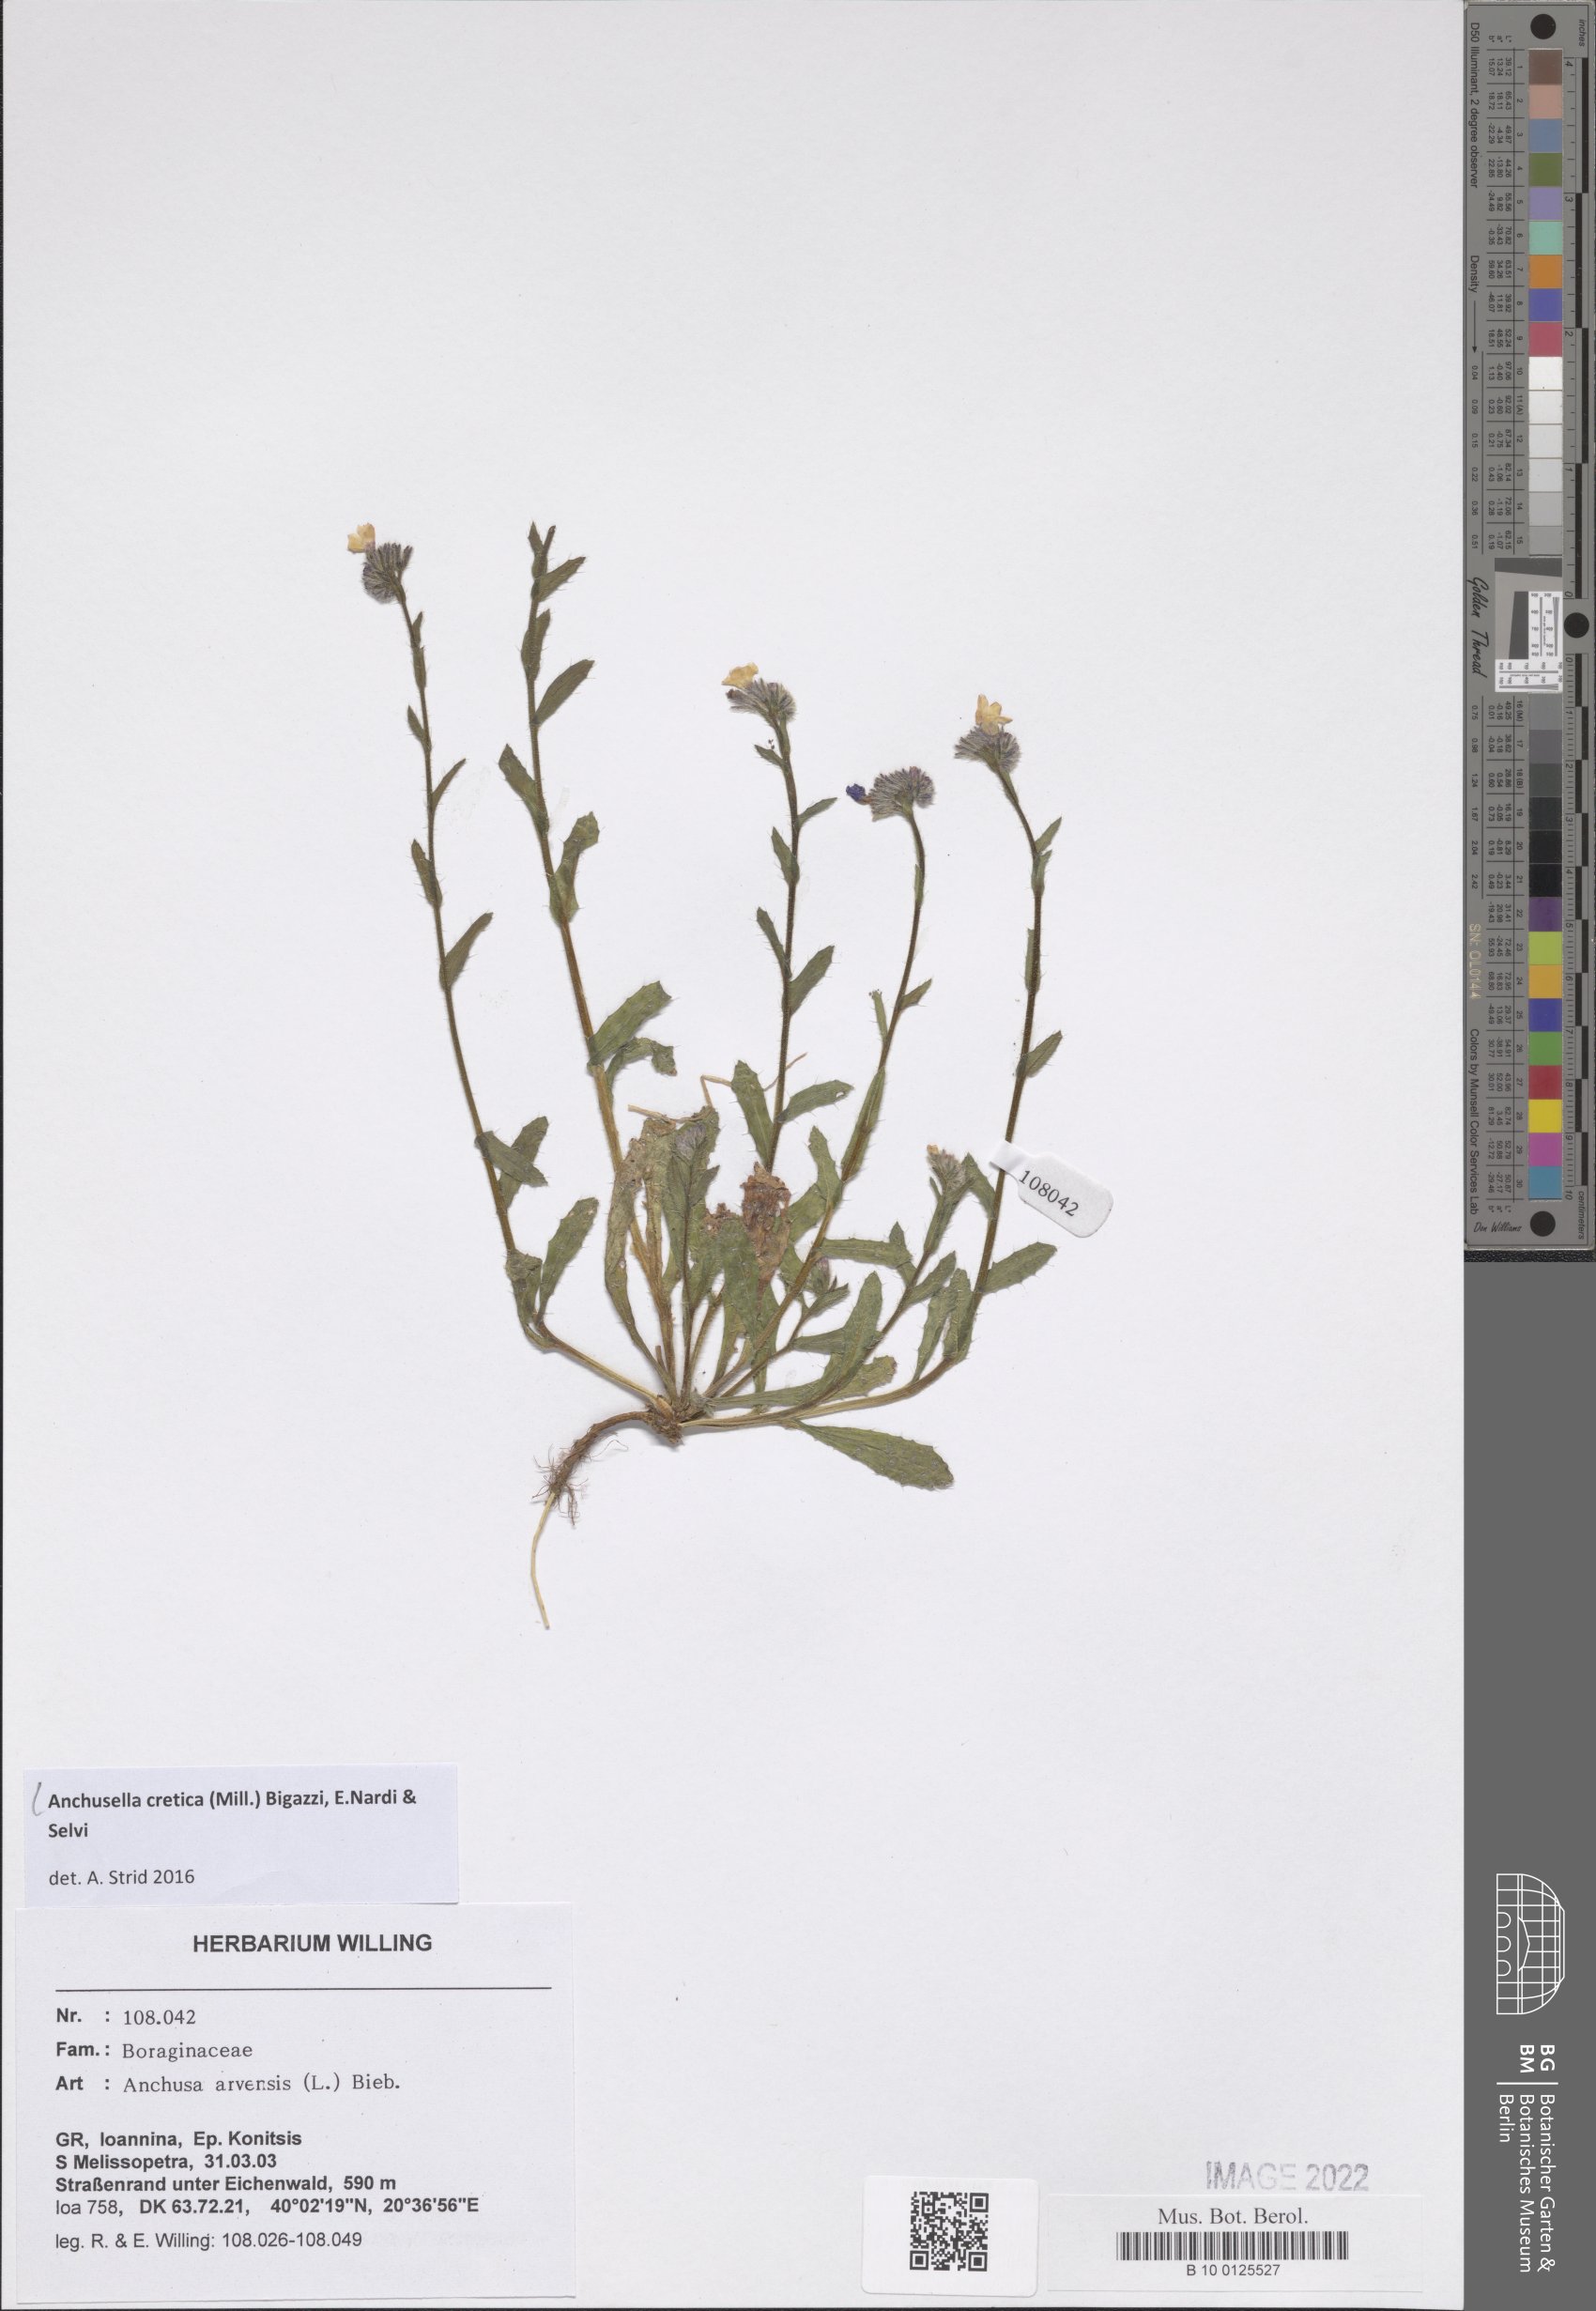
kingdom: Plantae
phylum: Tracheophyta
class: Magnoliopsida
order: Boraginales
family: Boraginaceae
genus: Anchusella
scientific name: Anchusella cretica
